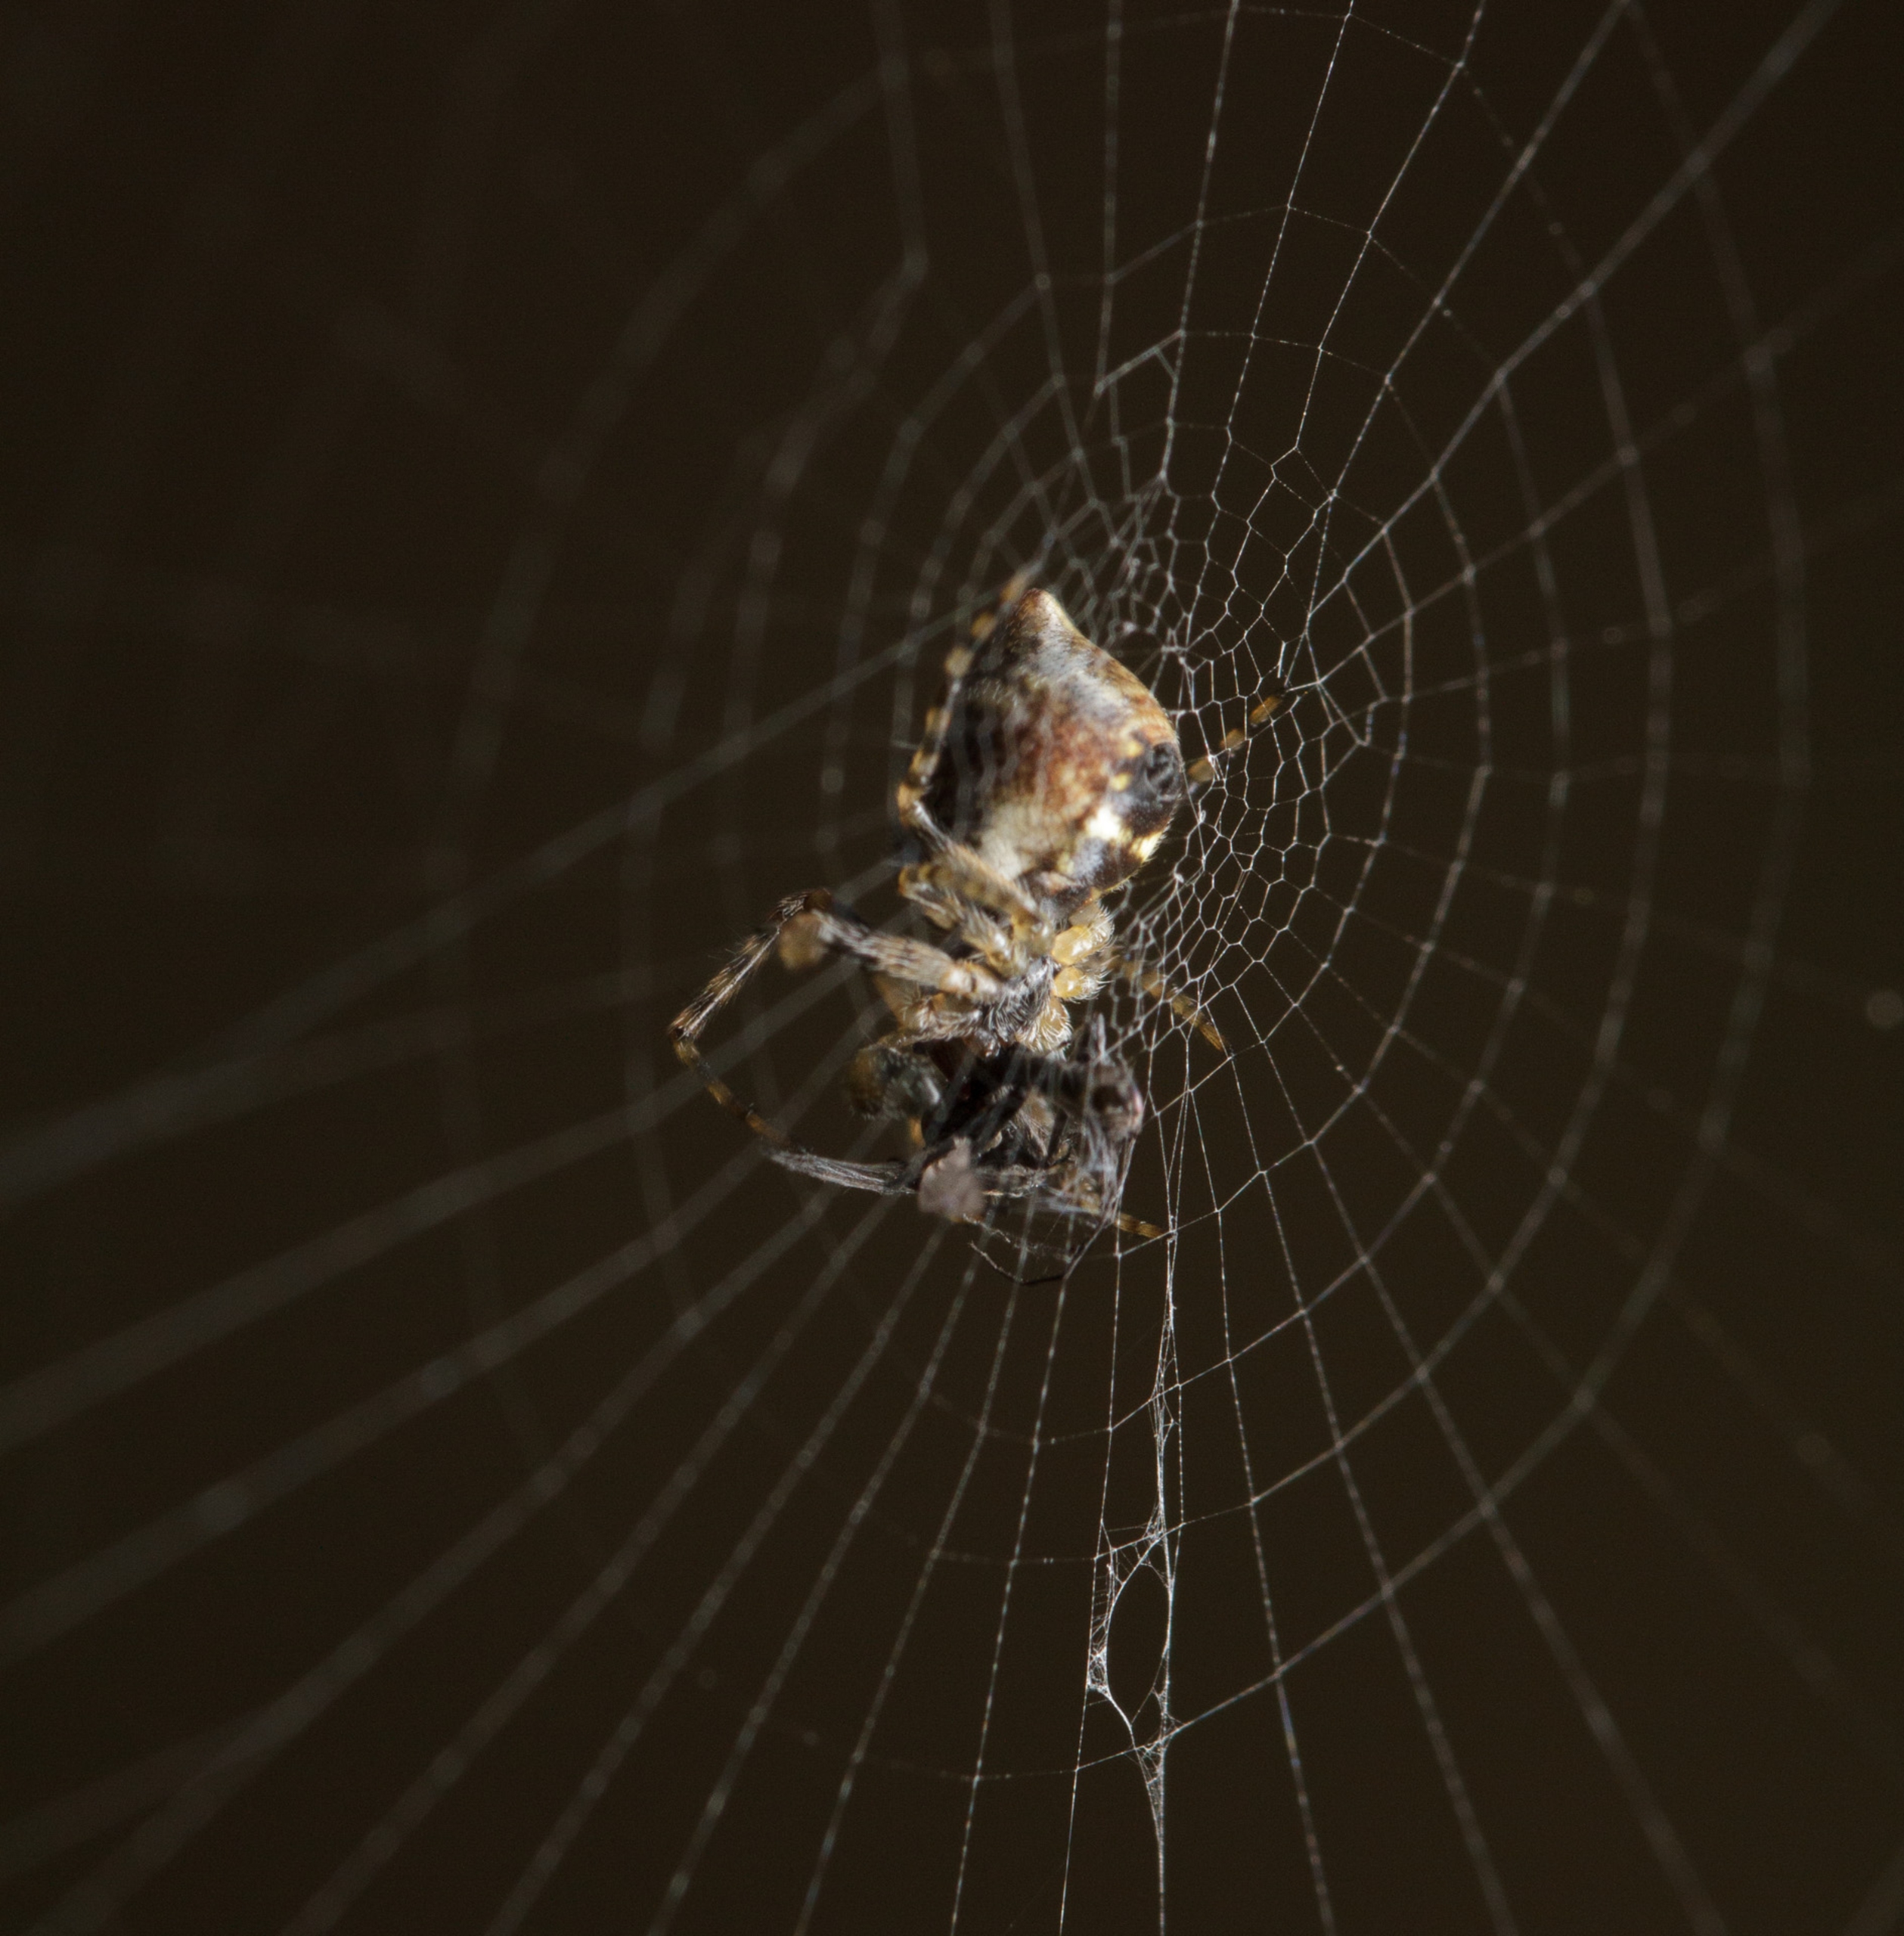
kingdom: Animalia
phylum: Arthropoda
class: Arachnida
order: Araneae
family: Araneidae
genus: Cyclosa
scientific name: Cyclosa conica
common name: Keglerumpe
